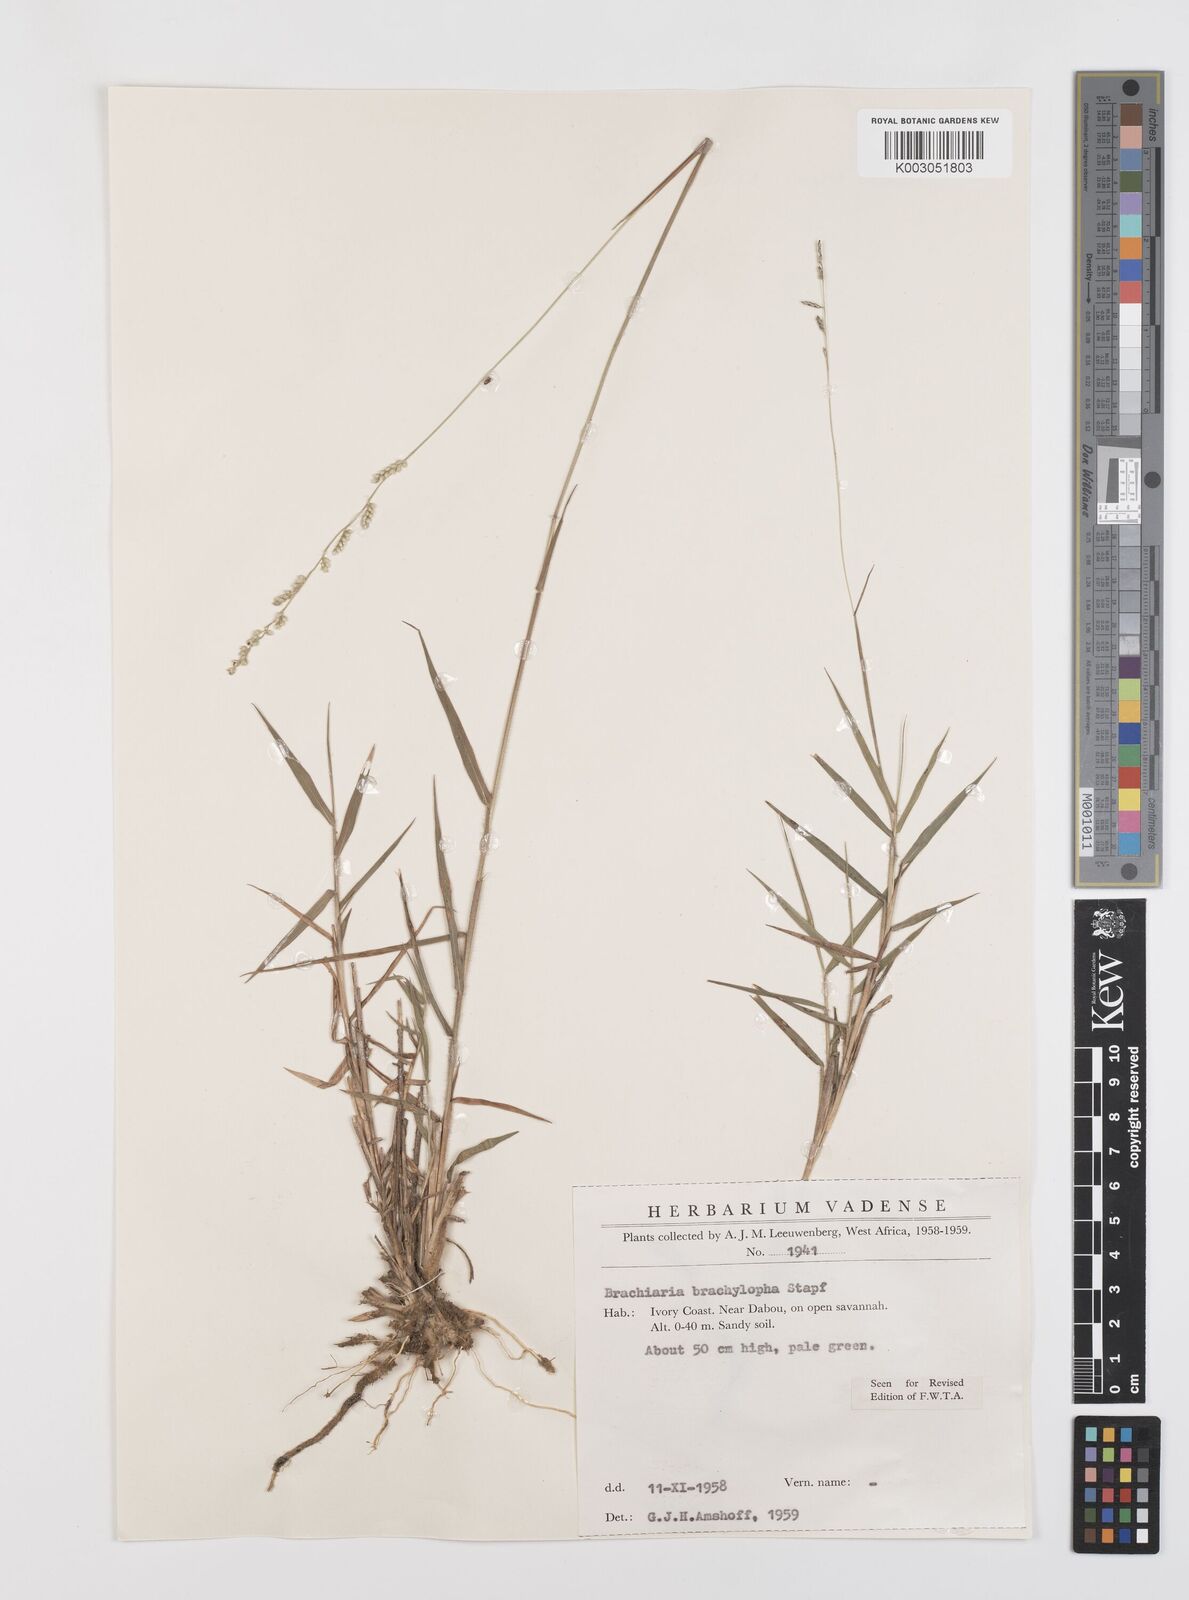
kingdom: Plantae
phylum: Tracheophyta
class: Liliopsida
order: Poales
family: Poaceae
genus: Urochloa
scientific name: Urochloa serrata
